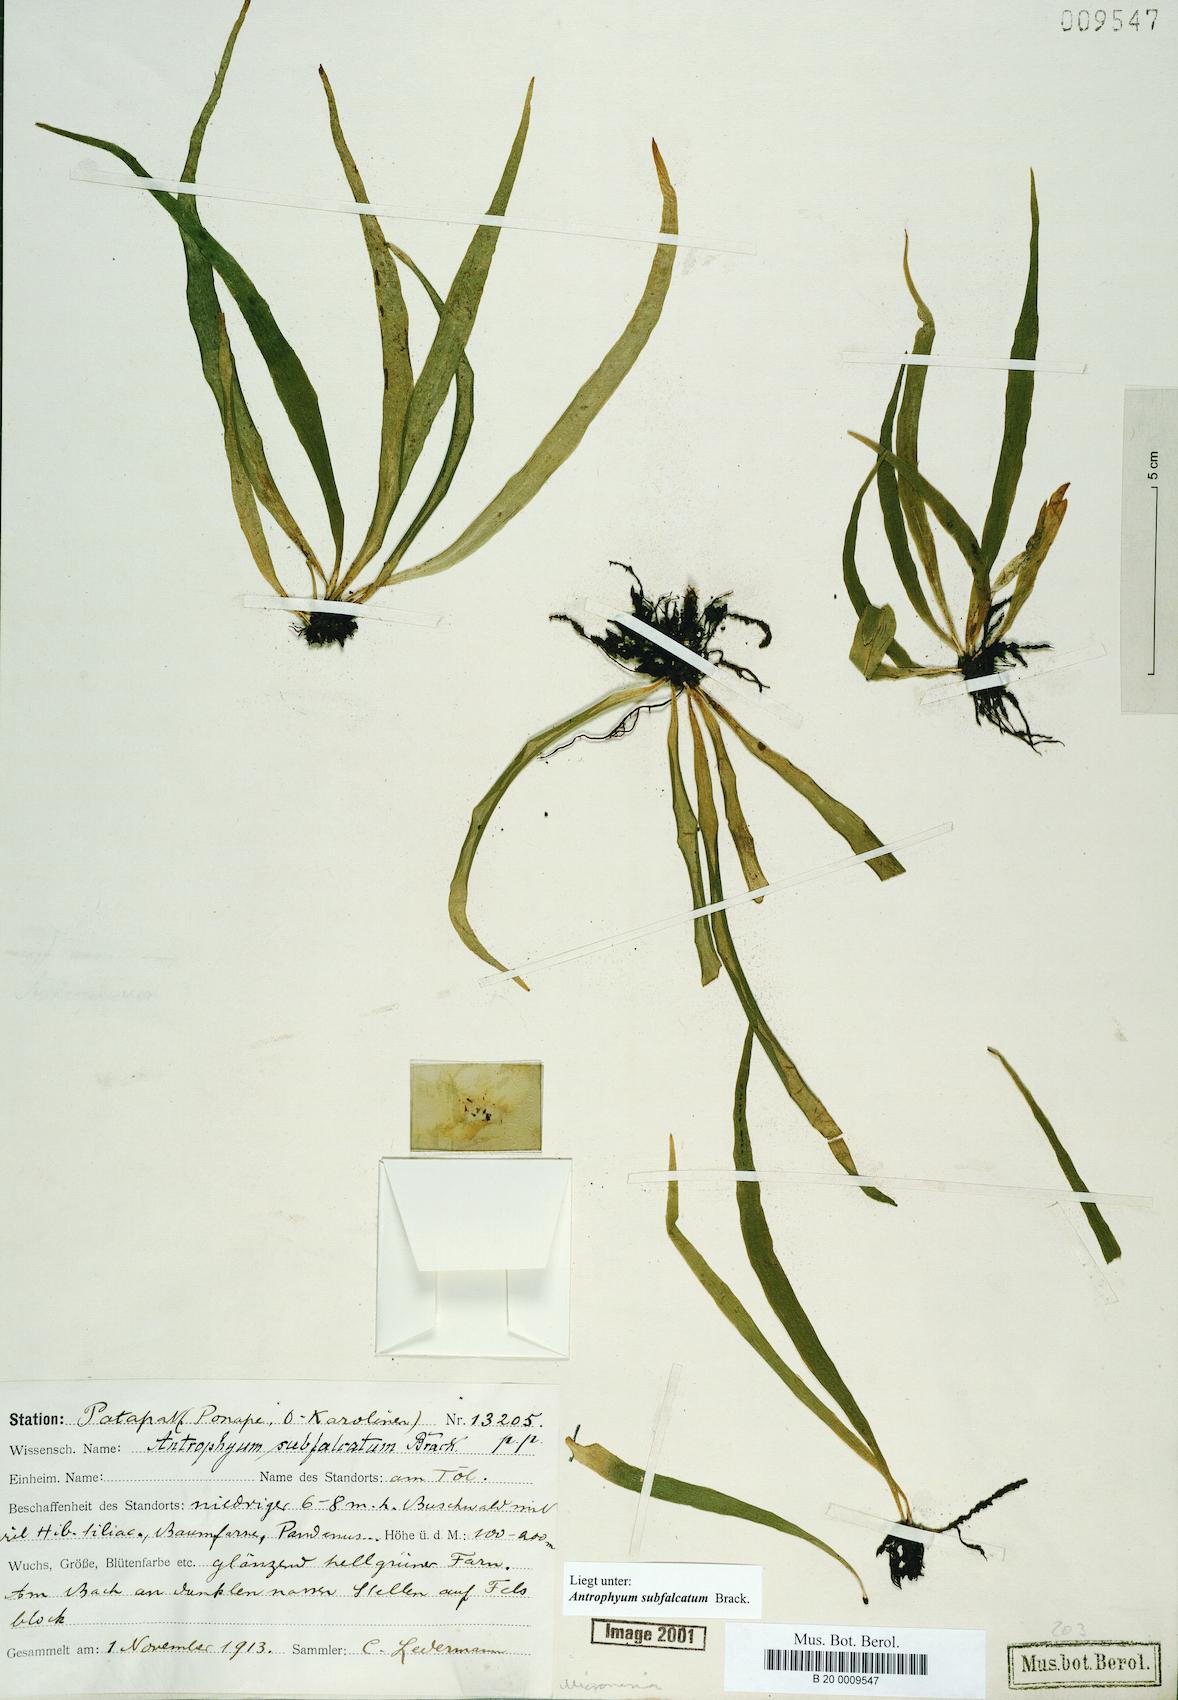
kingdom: Plantae
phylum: Tracheophyta
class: Polypodiopsida
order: Polypodiales
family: Pteridaceae
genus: Antrophyum
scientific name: Antrophyum subfalcatum
